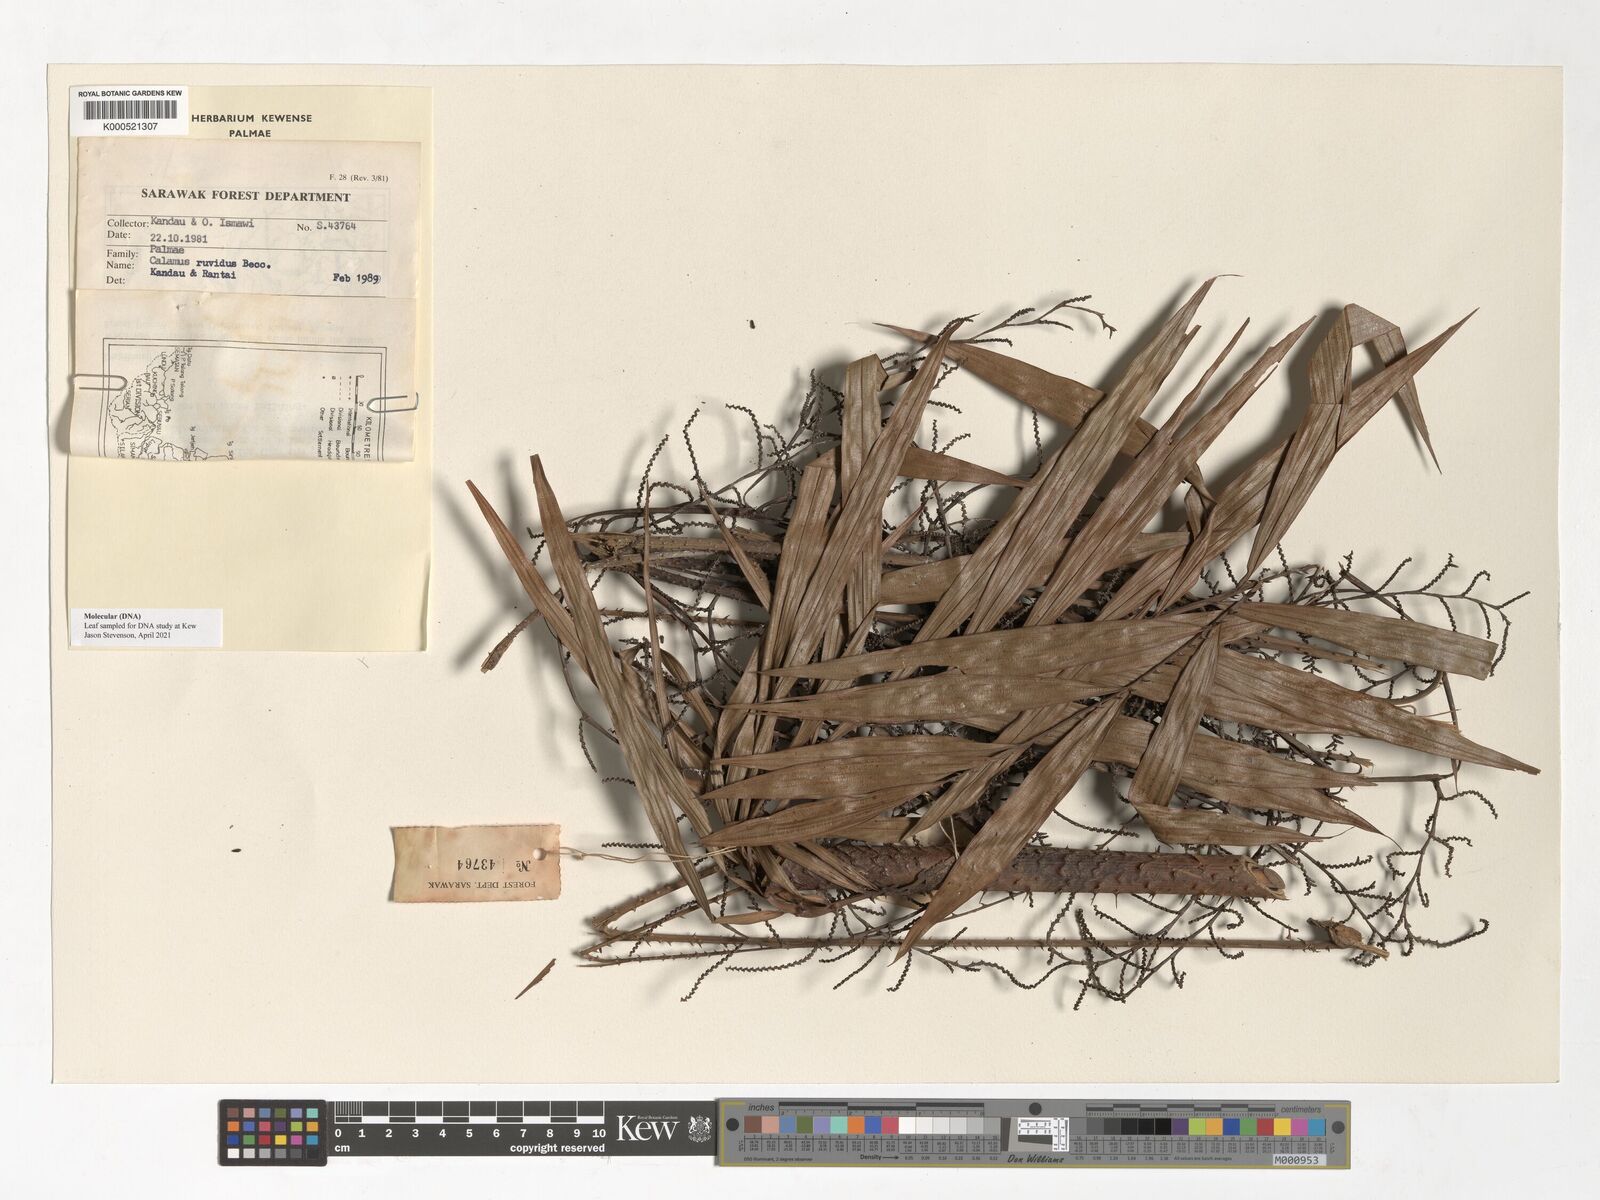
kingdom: Plantae
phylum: Tracheophyta
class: Liliopsida
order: Arecales
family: Arecaceae
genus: Calamus
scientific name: Calamus ruvidus
